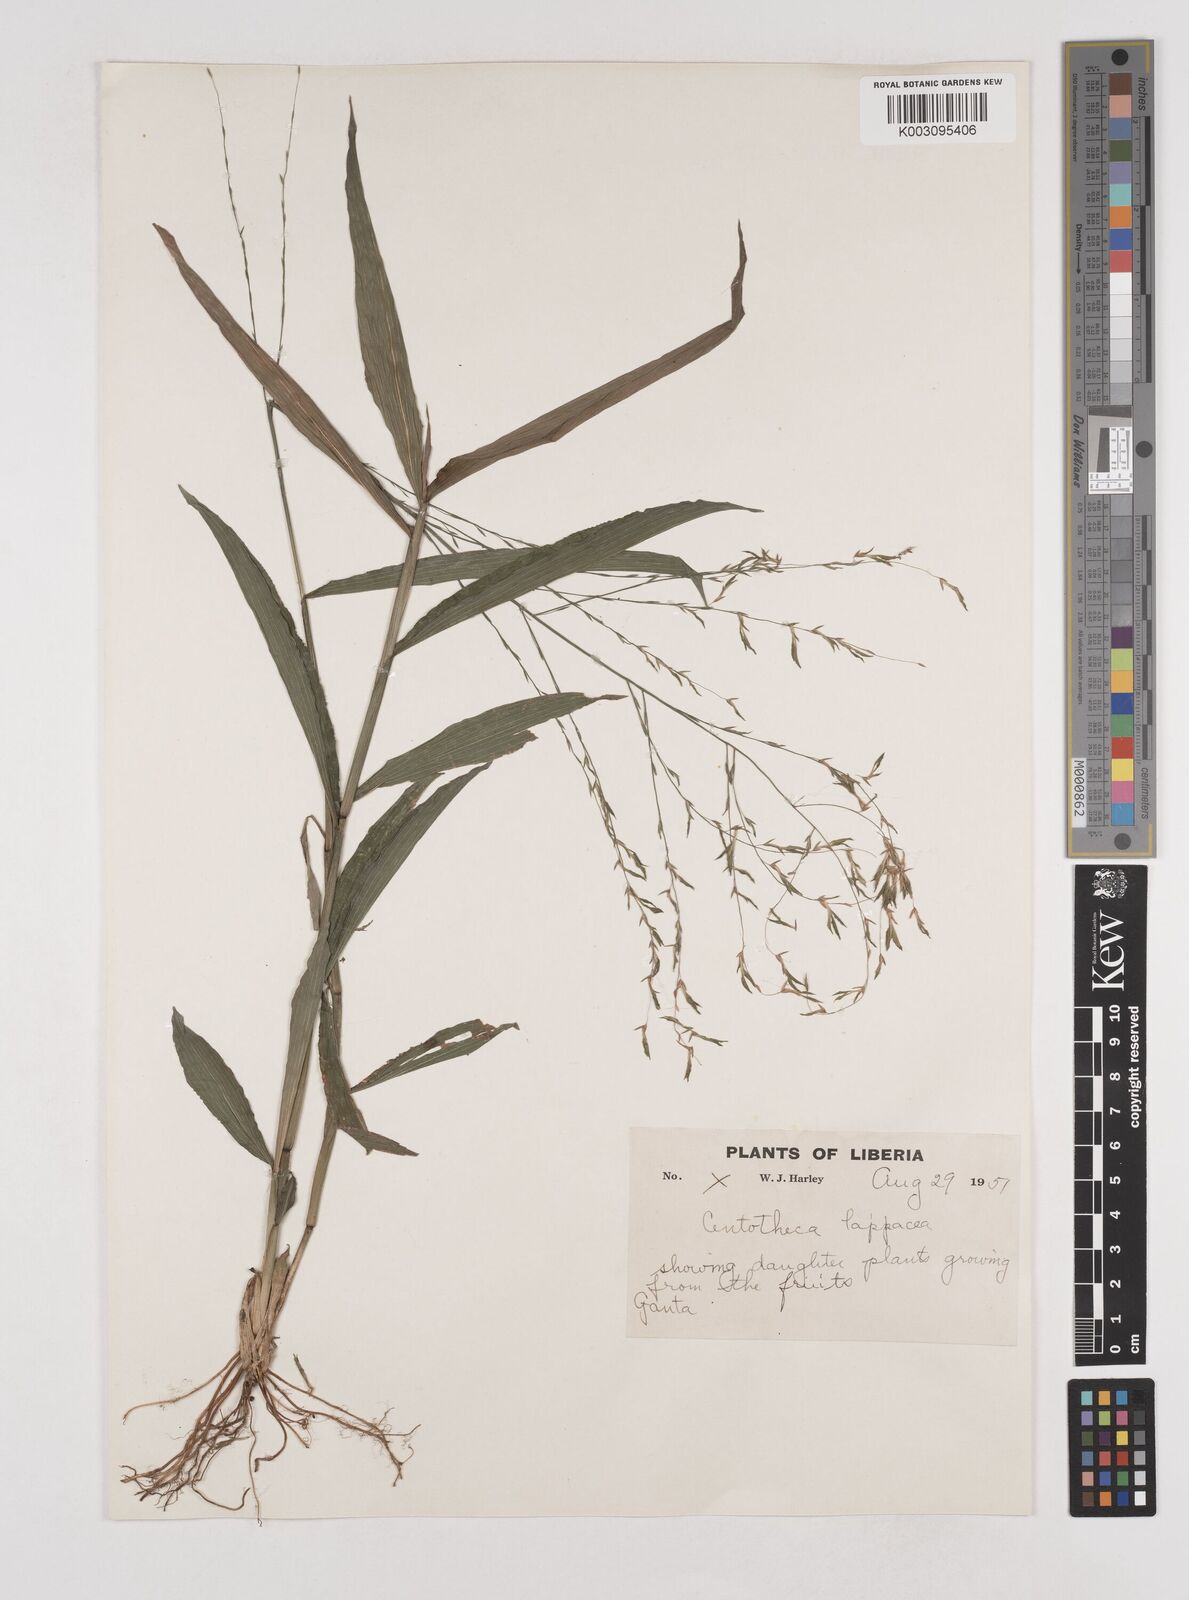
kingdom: Plantae
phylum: Tracheophyta
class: Liliopsida
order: Poales
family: Poaceae
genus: Centotheca
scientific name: Centotheca lappacea
